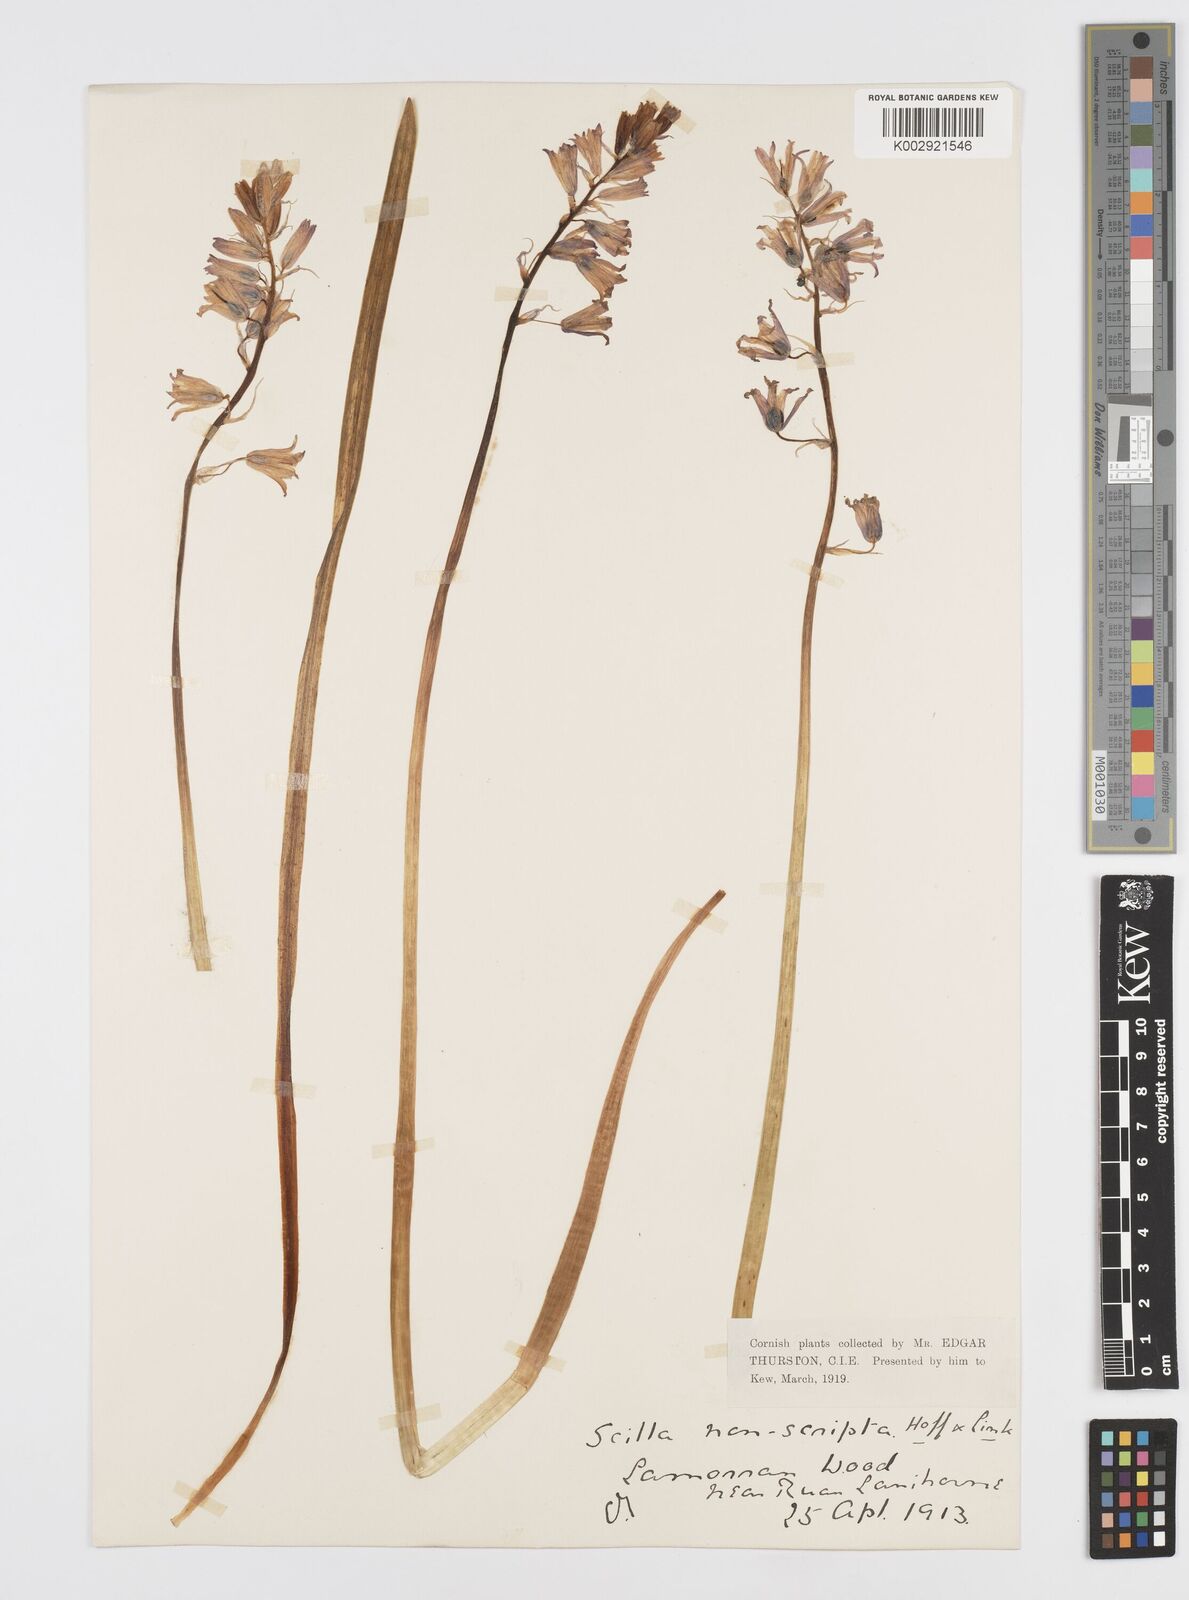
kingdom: Plantae
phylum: Tracheophyta
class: Liliopsida
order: Asparagales
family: Asparagaceae
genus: Hyacinthoides
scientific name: Hyacinthoides non-scripta
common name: Bluebell
